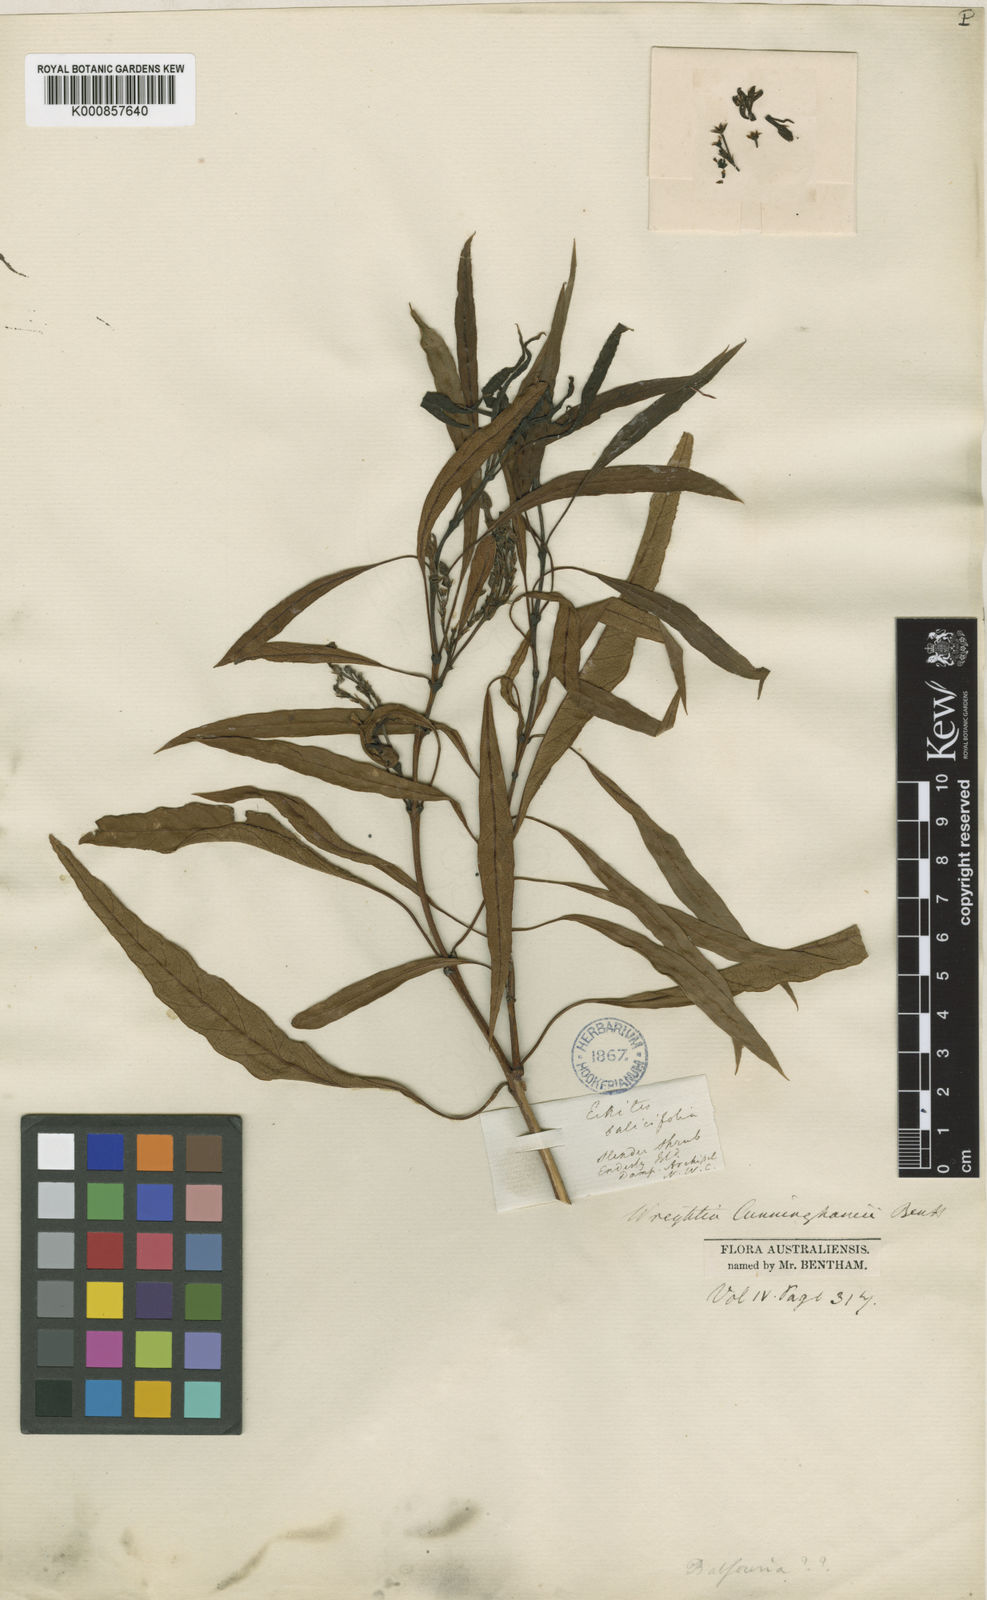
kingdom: Plantae
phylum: Tracheophyta
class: Magnoliopsida
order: Gentianales
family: Apocynaceae
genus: Gymnanthera
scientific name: Gymnanthera cunninghamii
